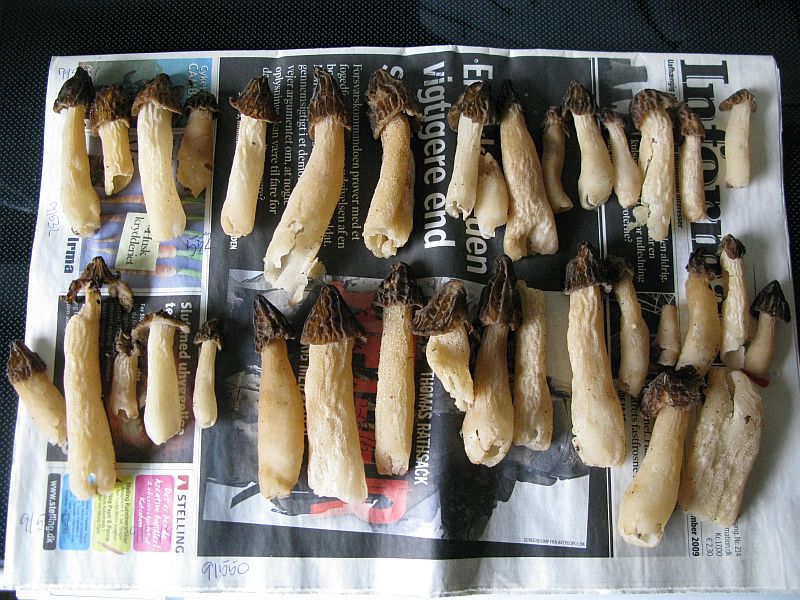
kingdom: Fungi
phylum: Ascomycota
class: Pezizomycetes
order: Pezizales
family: Morchellaceae
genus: Morchella
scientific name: Morchella semilibera
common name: hætte-morkel
